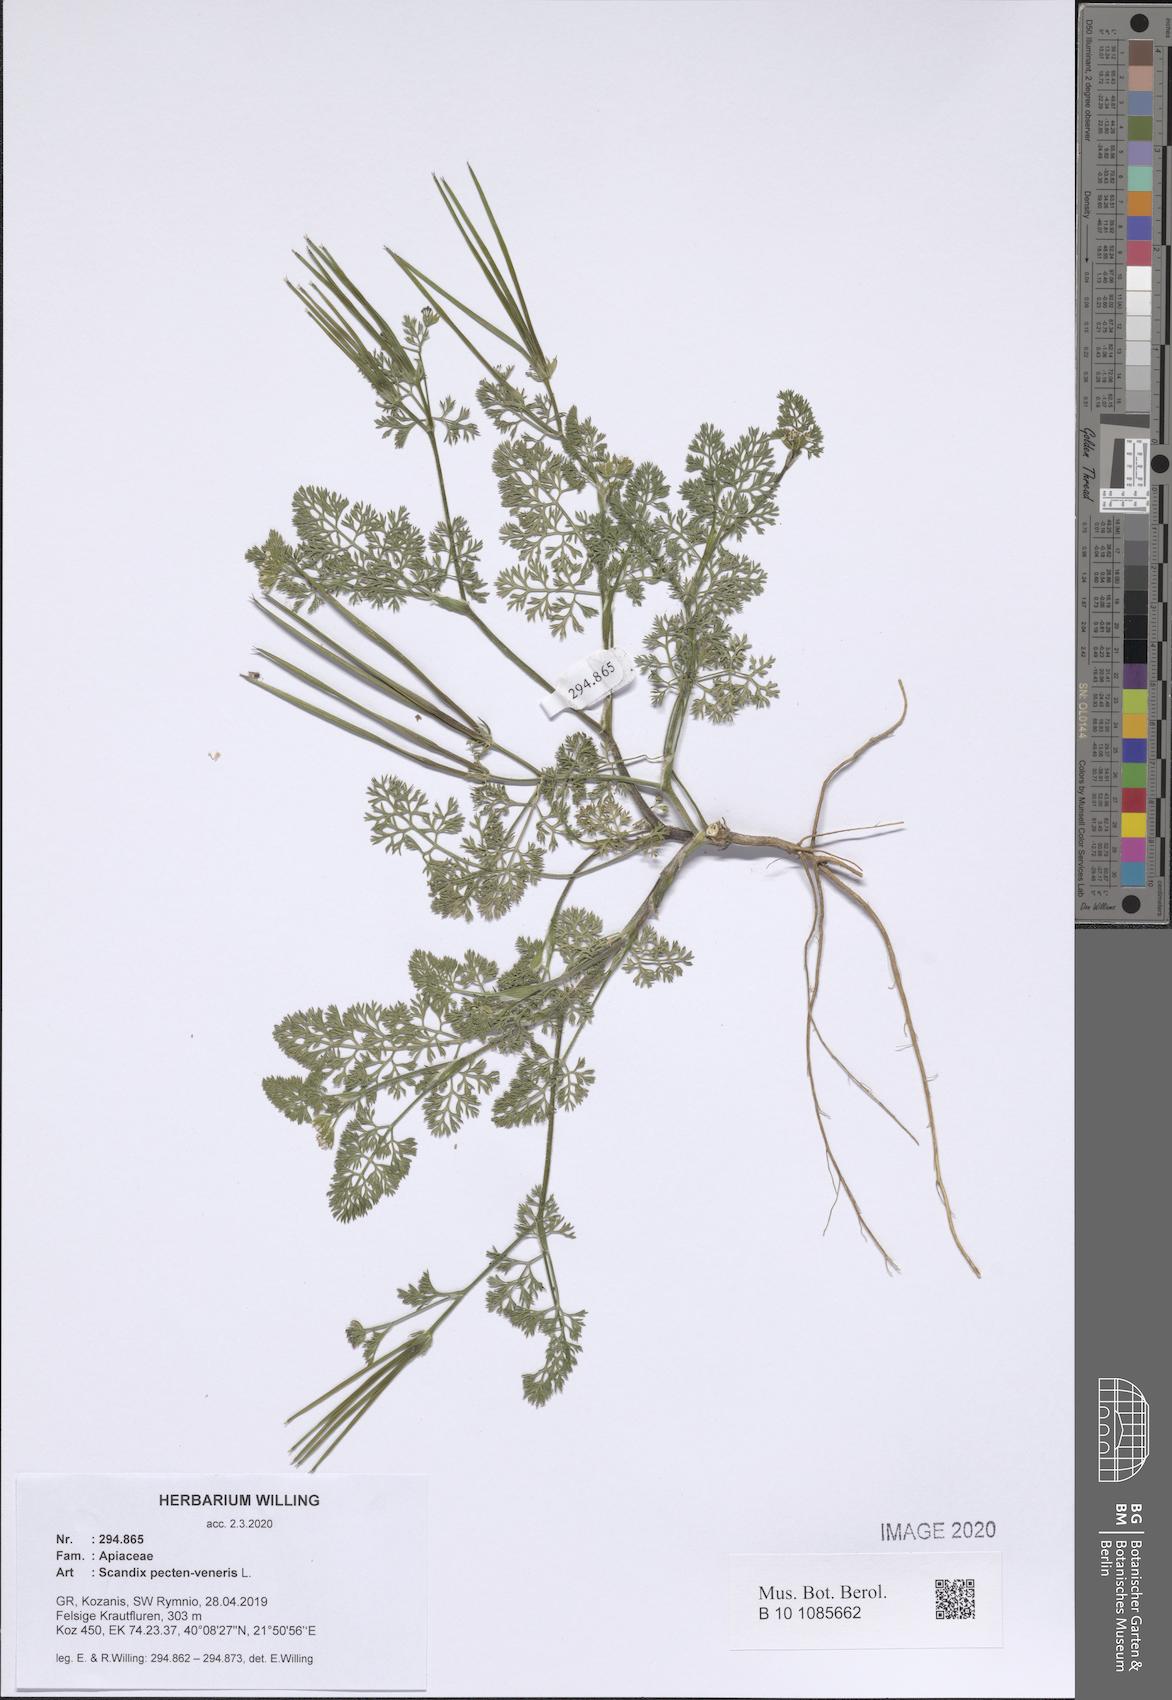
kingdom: Plantae
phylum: Tracheophyta
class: Magnoliopsida
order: Apiales
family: Apiaceae
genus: Scandix
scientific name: Scandix pecten-veneris
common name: Shepherd's-needle
